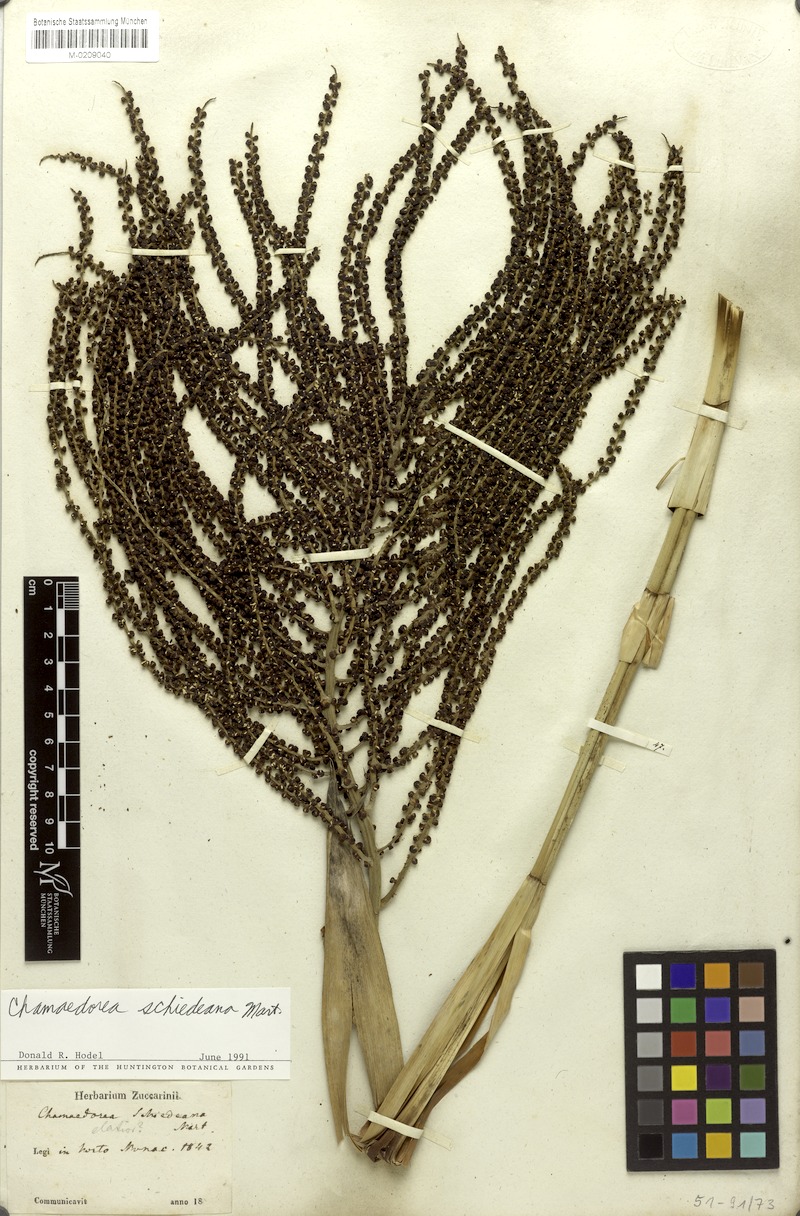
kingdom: Plantae
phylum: Tracheophyta
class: Liliopsida
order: Arecales
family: Arecaceae
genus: Chamaedorea
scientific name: Chamaedorea schiedeana
